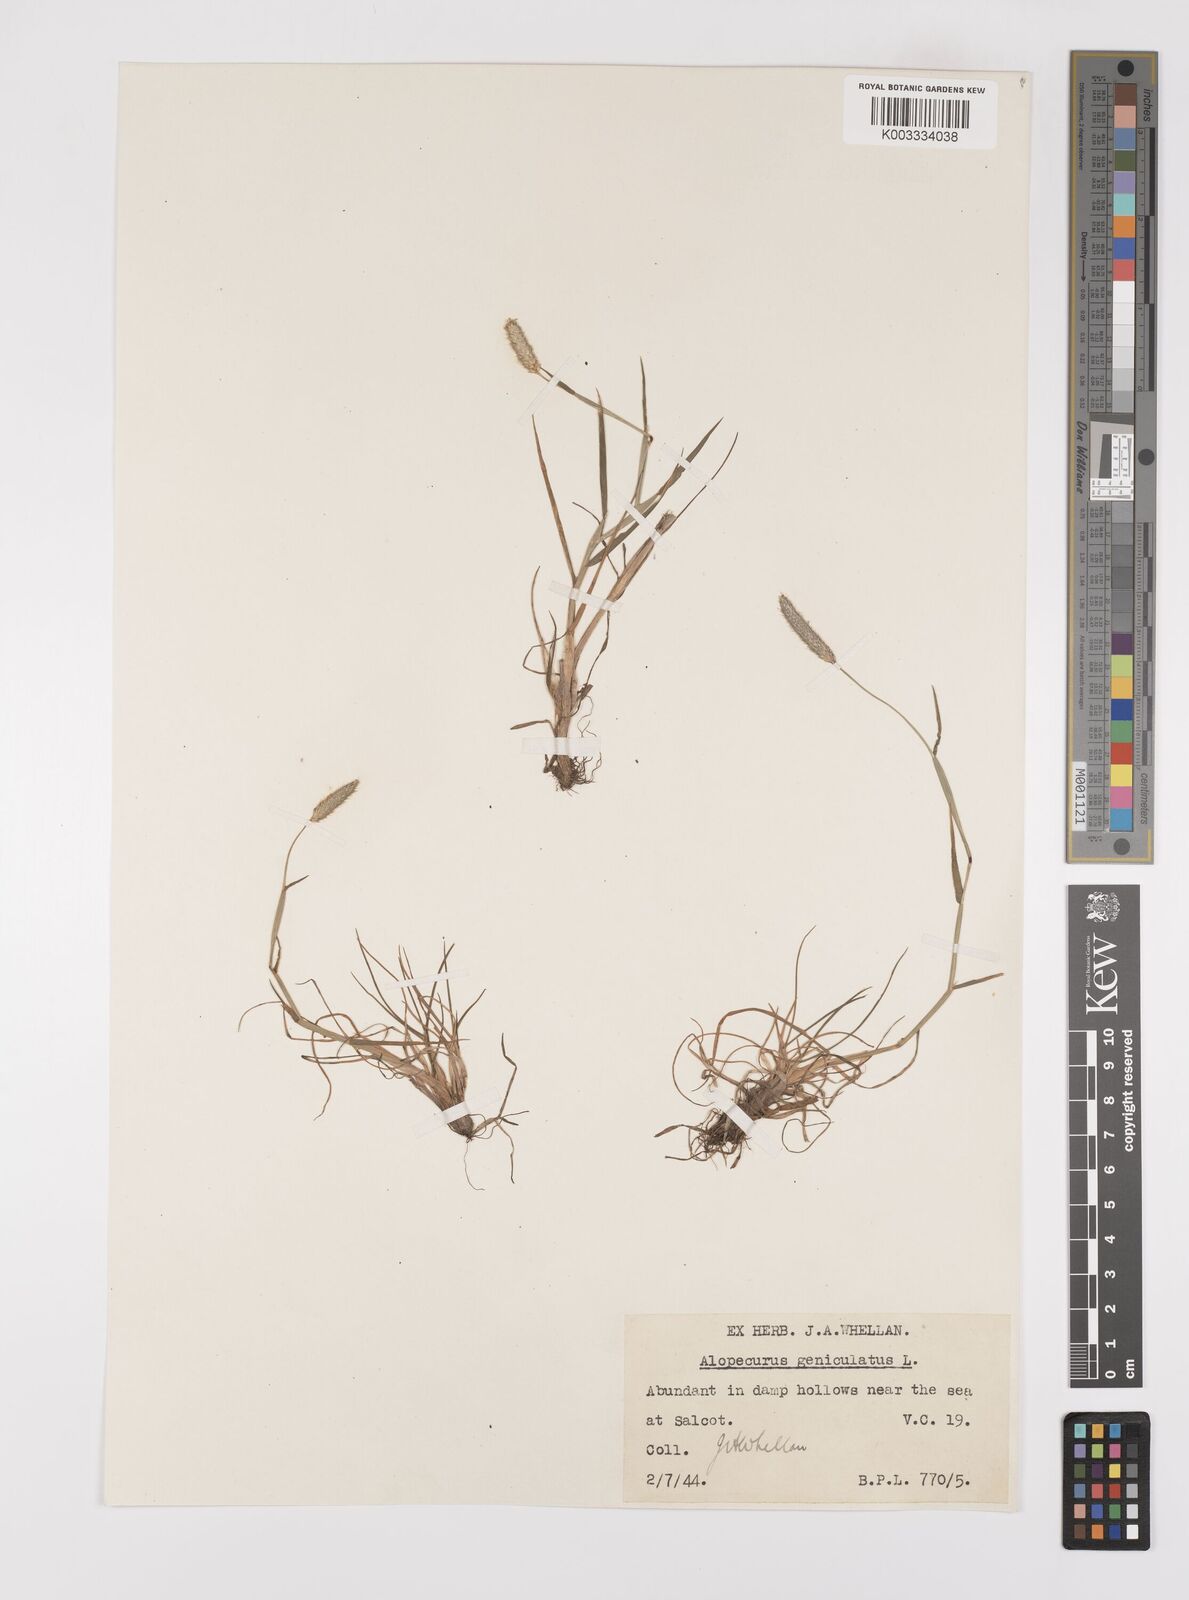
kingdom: Plantae
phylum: Tracheophyta
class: Liliopsida
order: Poales
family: Poaceae
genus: Alopecurus
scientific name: Alopecurus geniculatus
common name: Water foxtail
